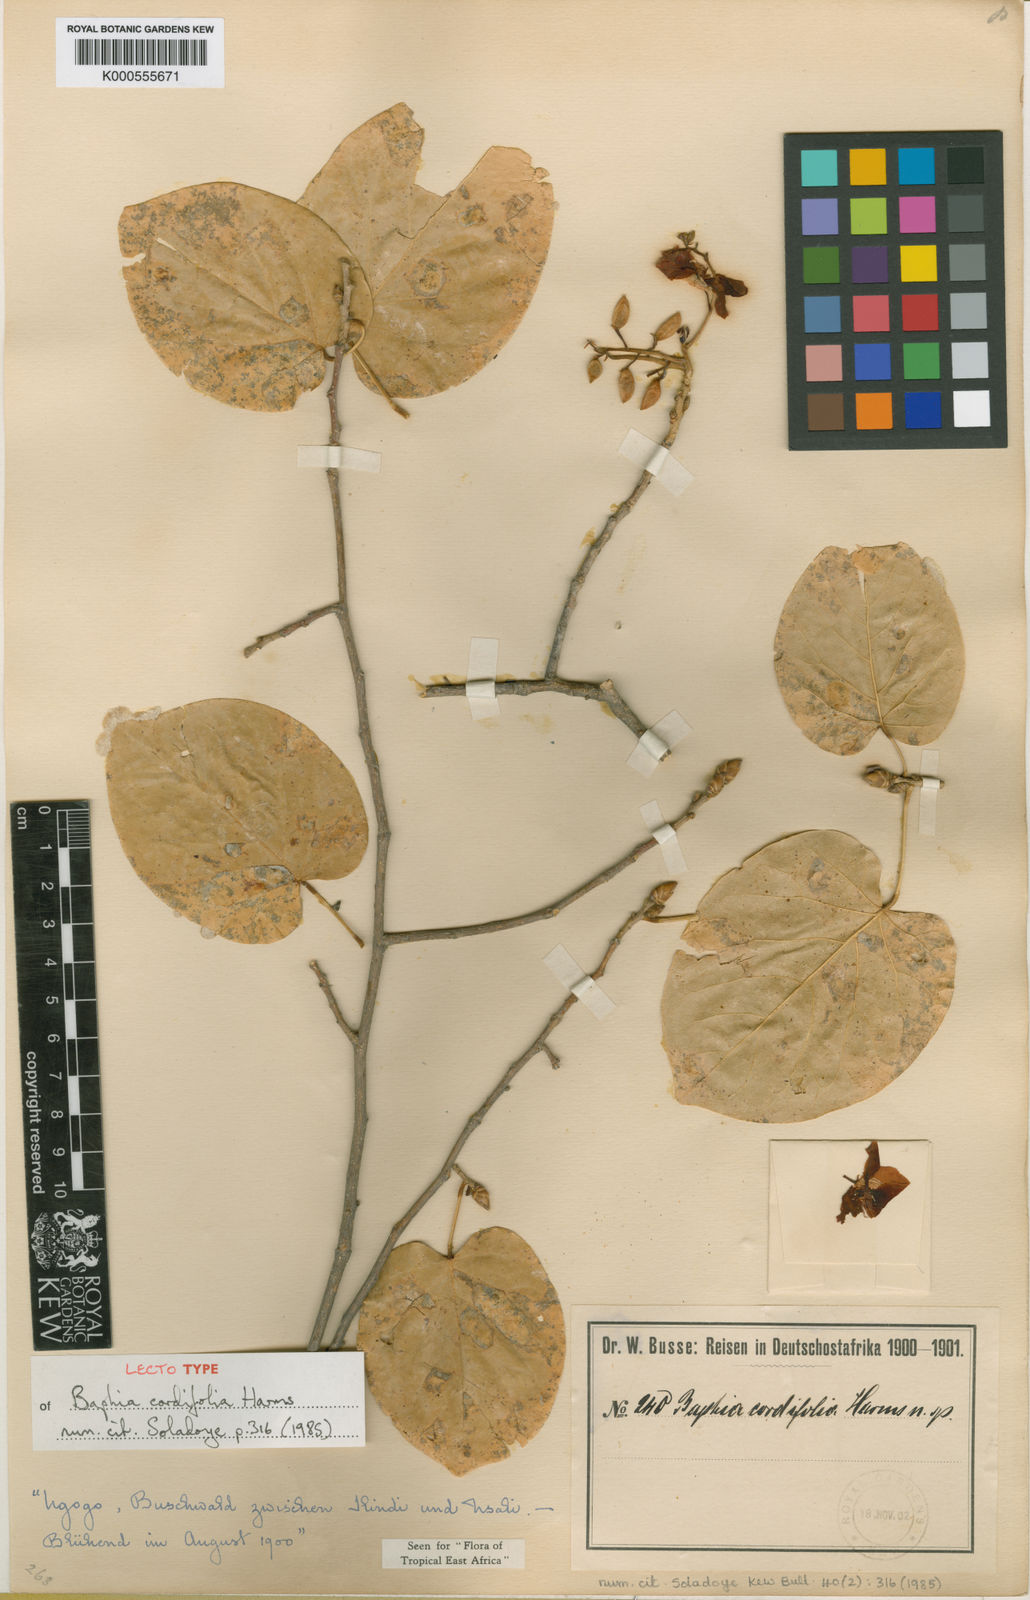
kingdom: Plantae
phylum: Tracheophyta
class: Magnoliopsida
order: Fabales
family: Fabaceae
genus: Baphia
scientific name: Baphia cordifolia
